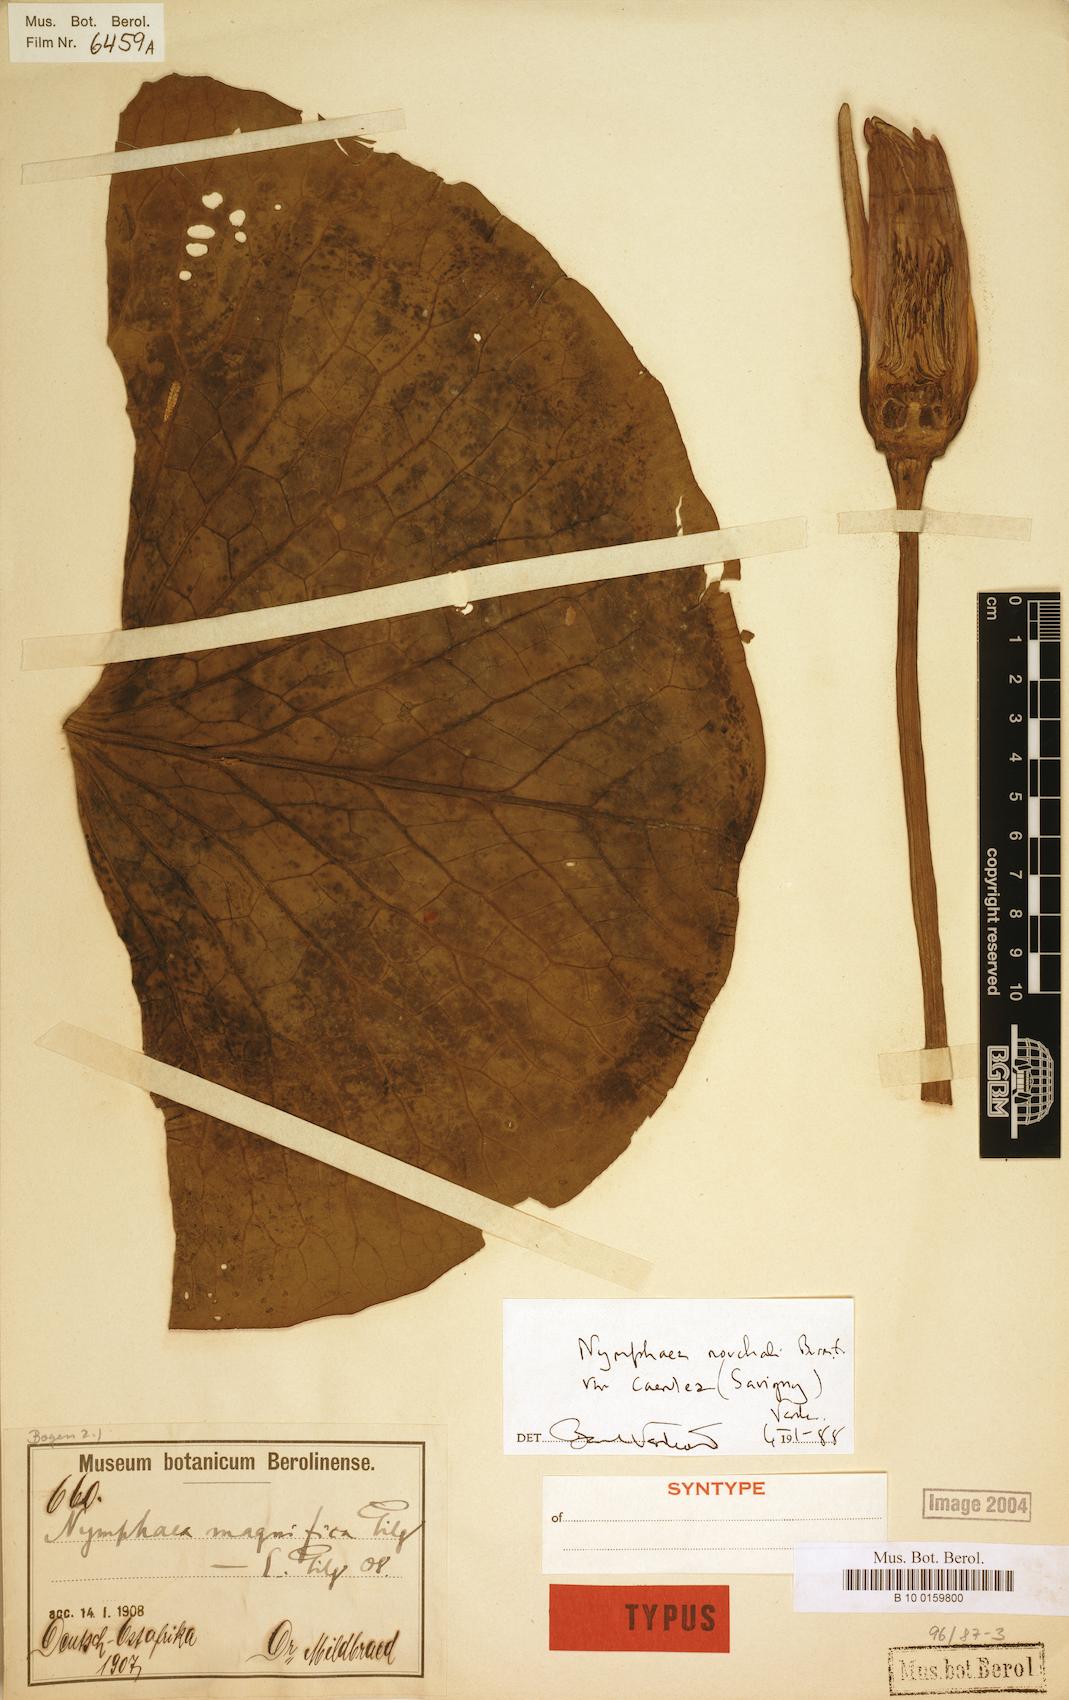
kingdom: Plantae
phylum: Tracheophyta
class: Magnoliopsida
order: Nymphaeales
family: Nymphaeaceae
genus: Nymphaea
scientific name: Nymphaea nouchali
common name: Blue lotus
